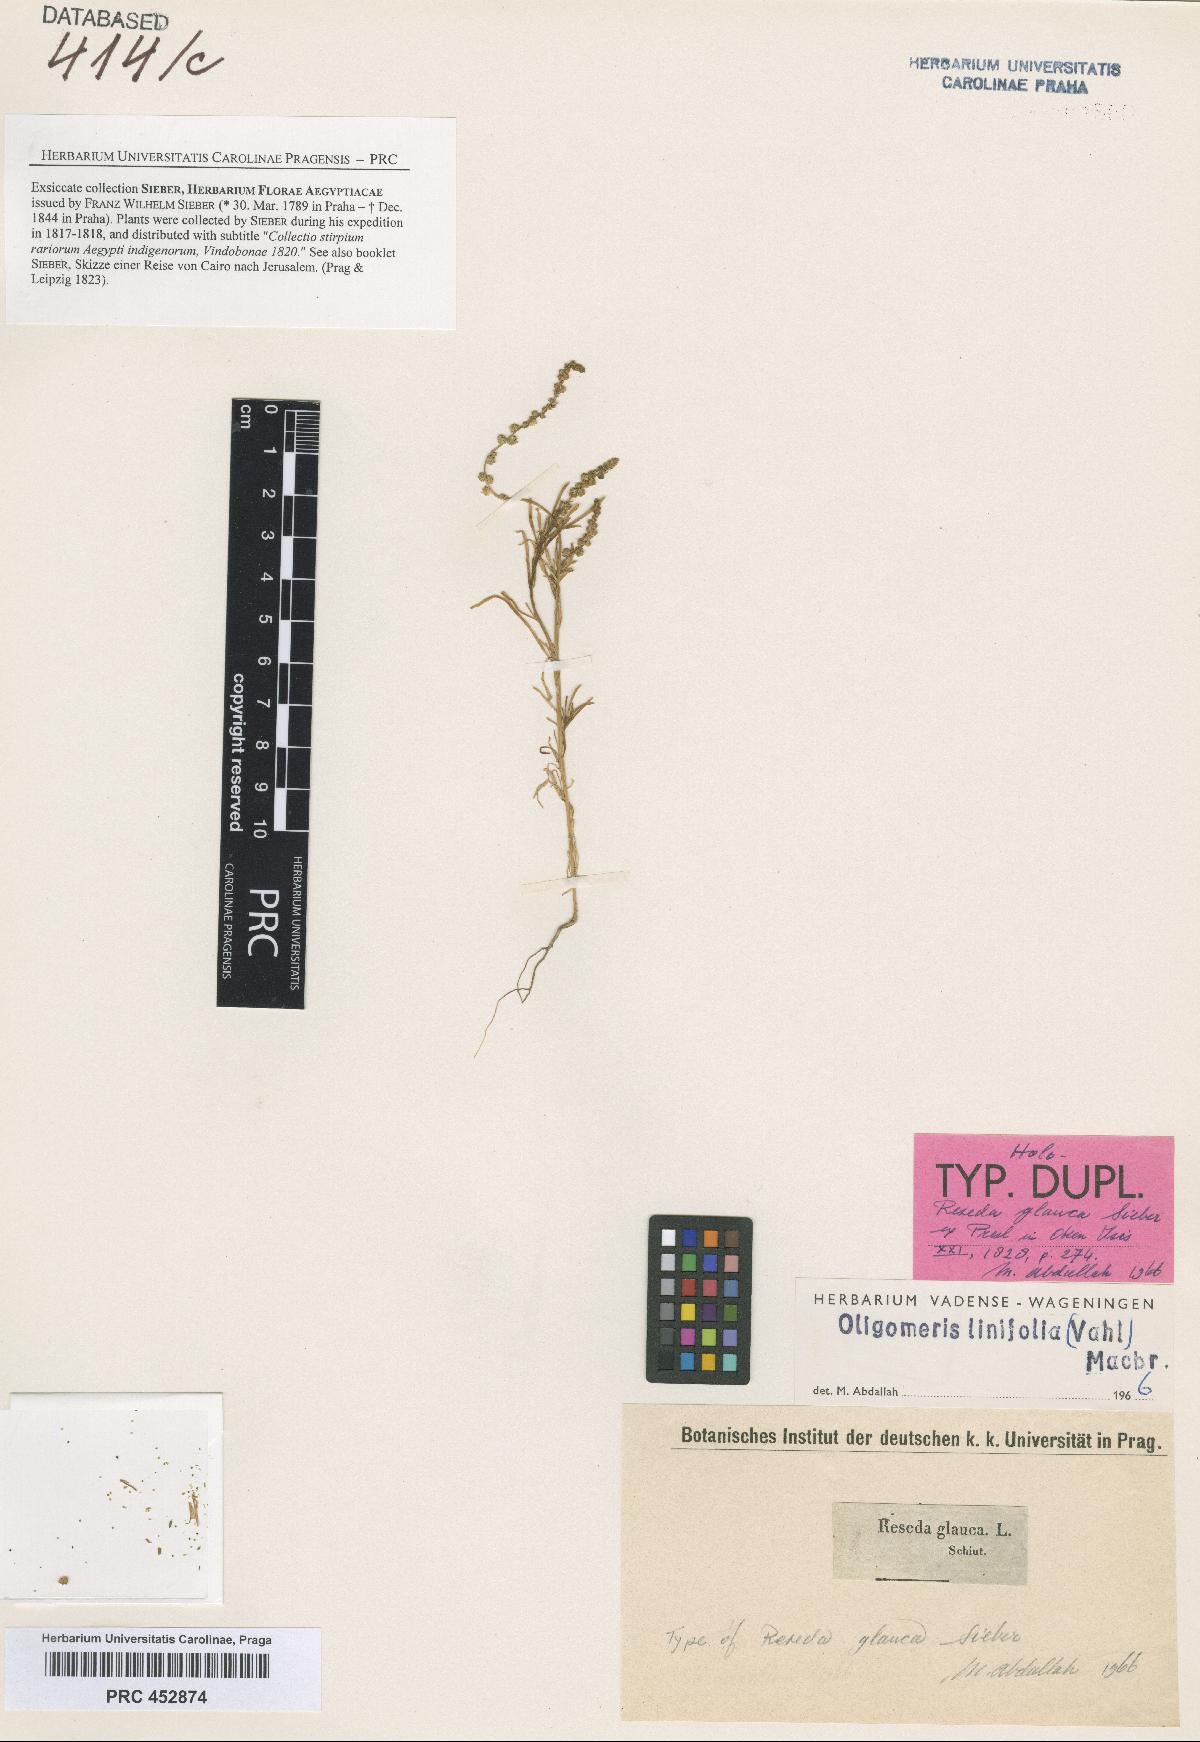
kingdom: Plantae
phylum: Tracheophyta
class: Magnoliopsida
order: Brassicales
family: Resedaceae
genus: Oligomeris
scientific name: Oligomeris dipetala
